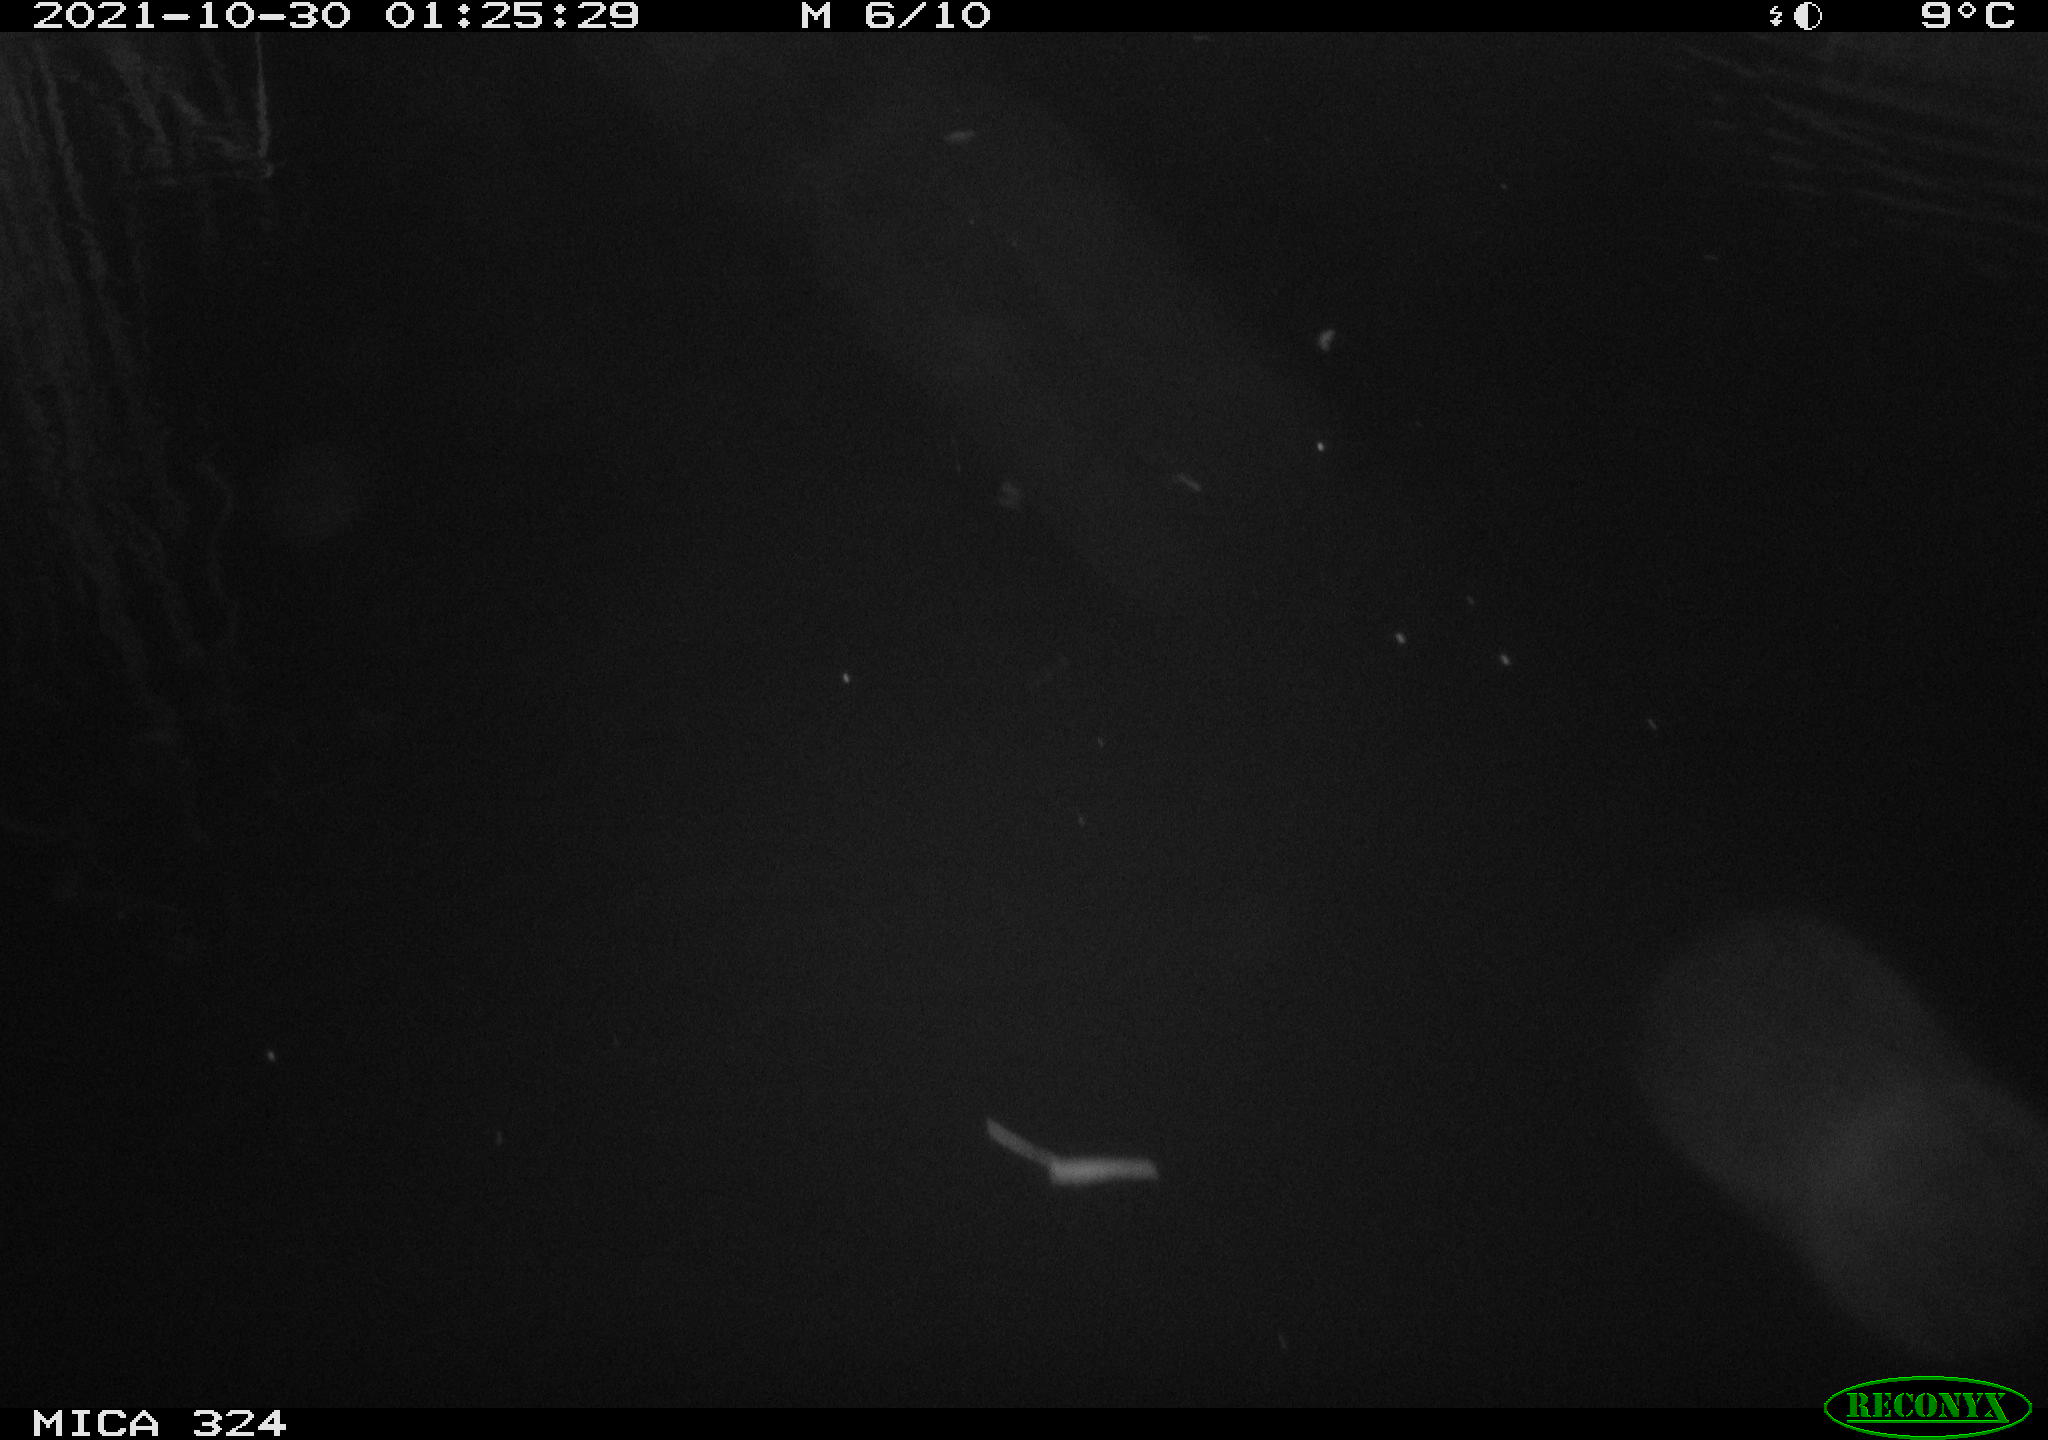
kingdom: Animalia
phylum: Chordata
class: Mammalia
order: Rodentia
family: Cricetidae
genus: Ondatra
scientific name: Ondatra zibethicus
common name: Muskrat
